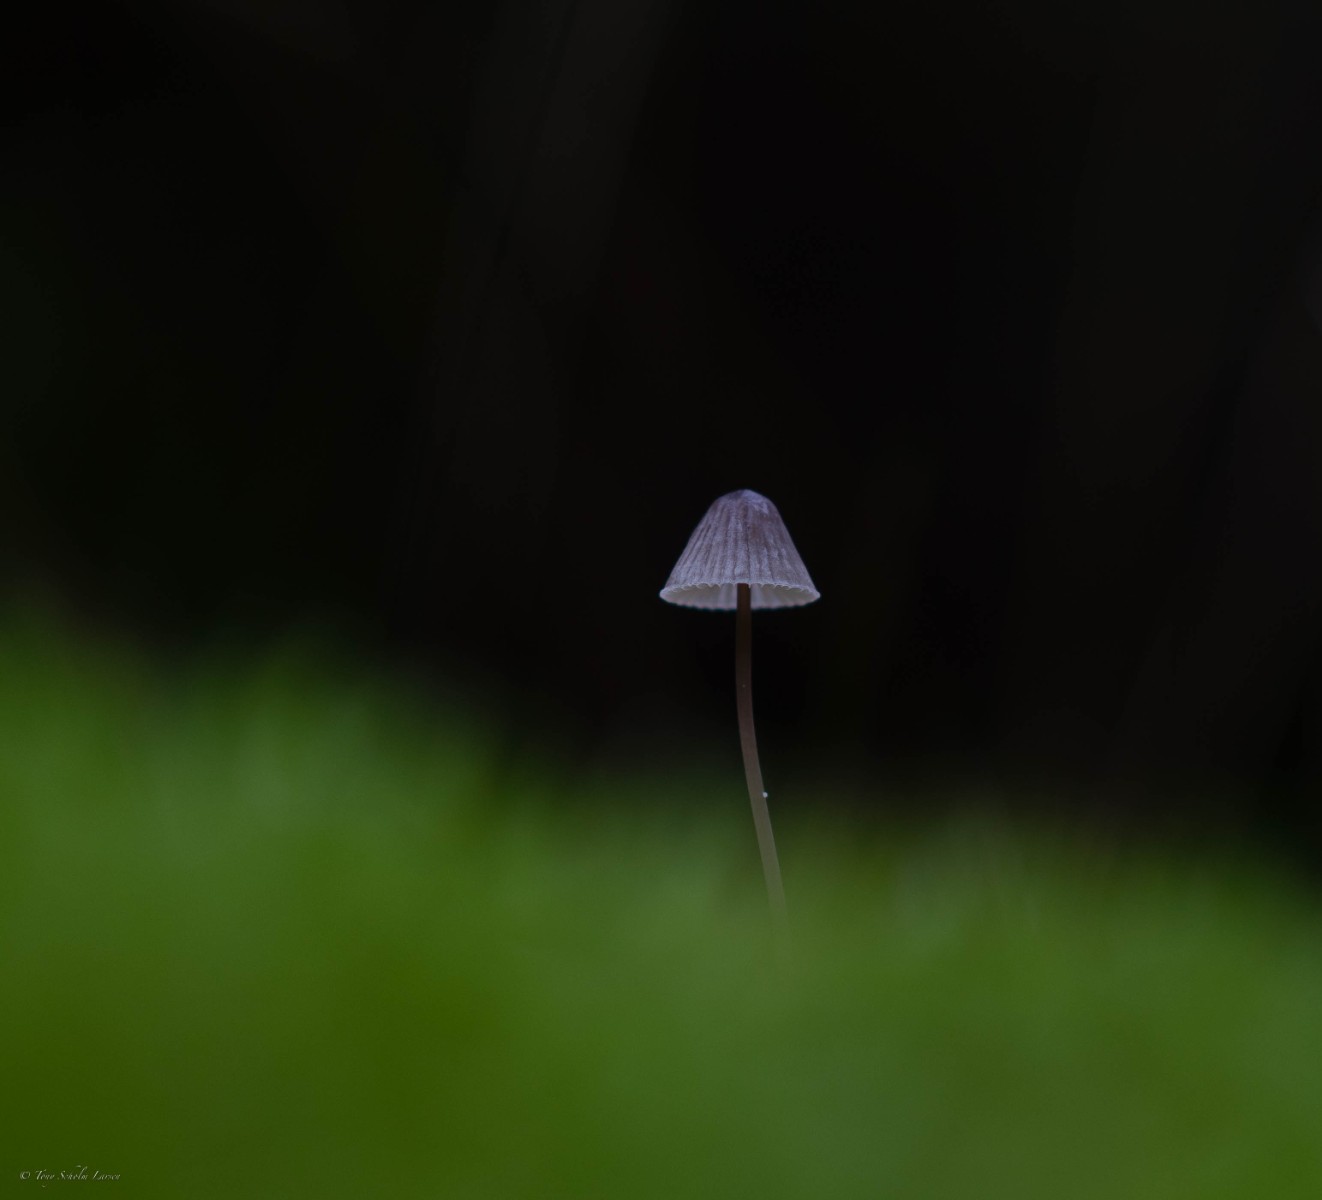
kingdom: Fungi
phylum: Basidiomycota
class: Agaricomycetes
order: Agaricales
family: Mycenaceae
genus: Mycena
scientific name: Mycena
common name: huesvamp
